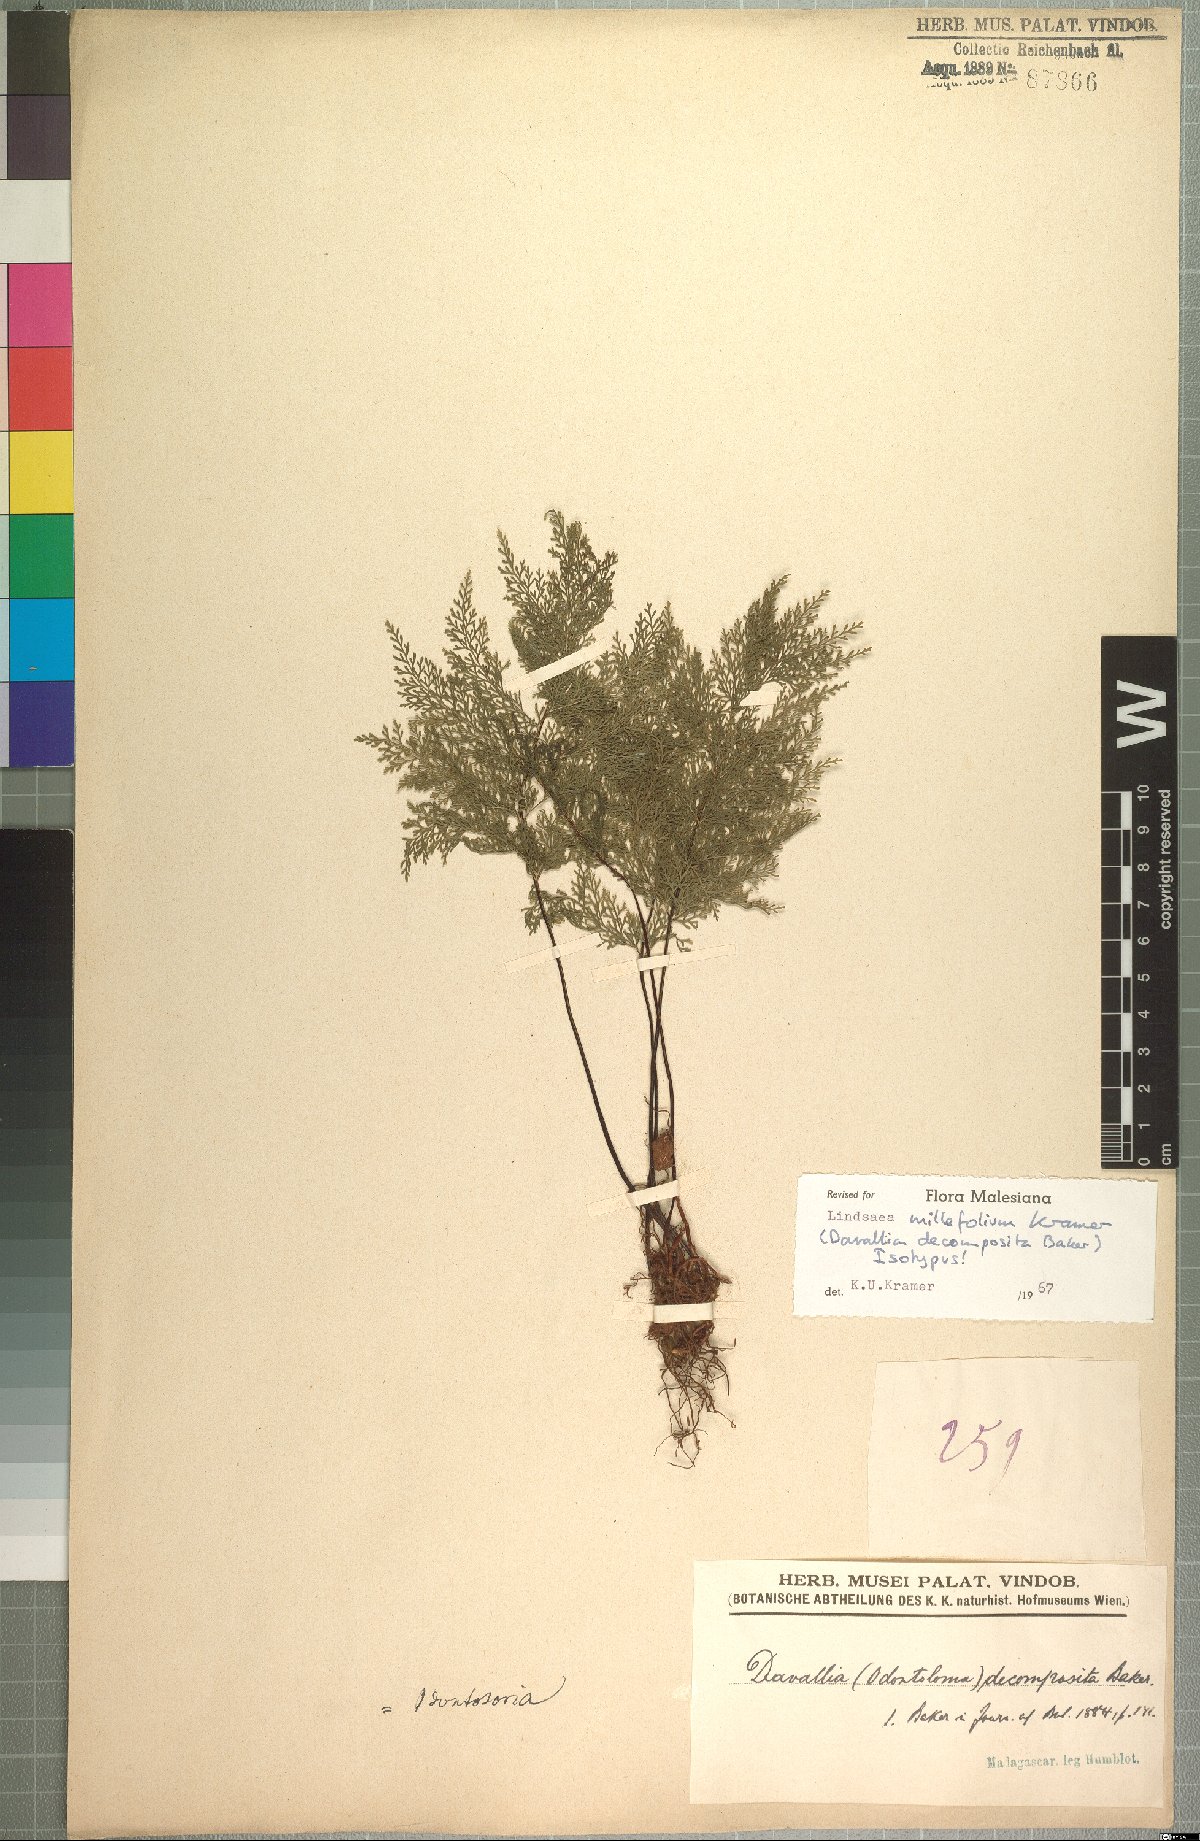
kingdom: Plantae
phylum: Tracheophyta
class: Polypodiopsida
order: Polypodiales
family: Lindsaeaceae
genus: Odontosoria
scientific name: Odontosoria decomposita
